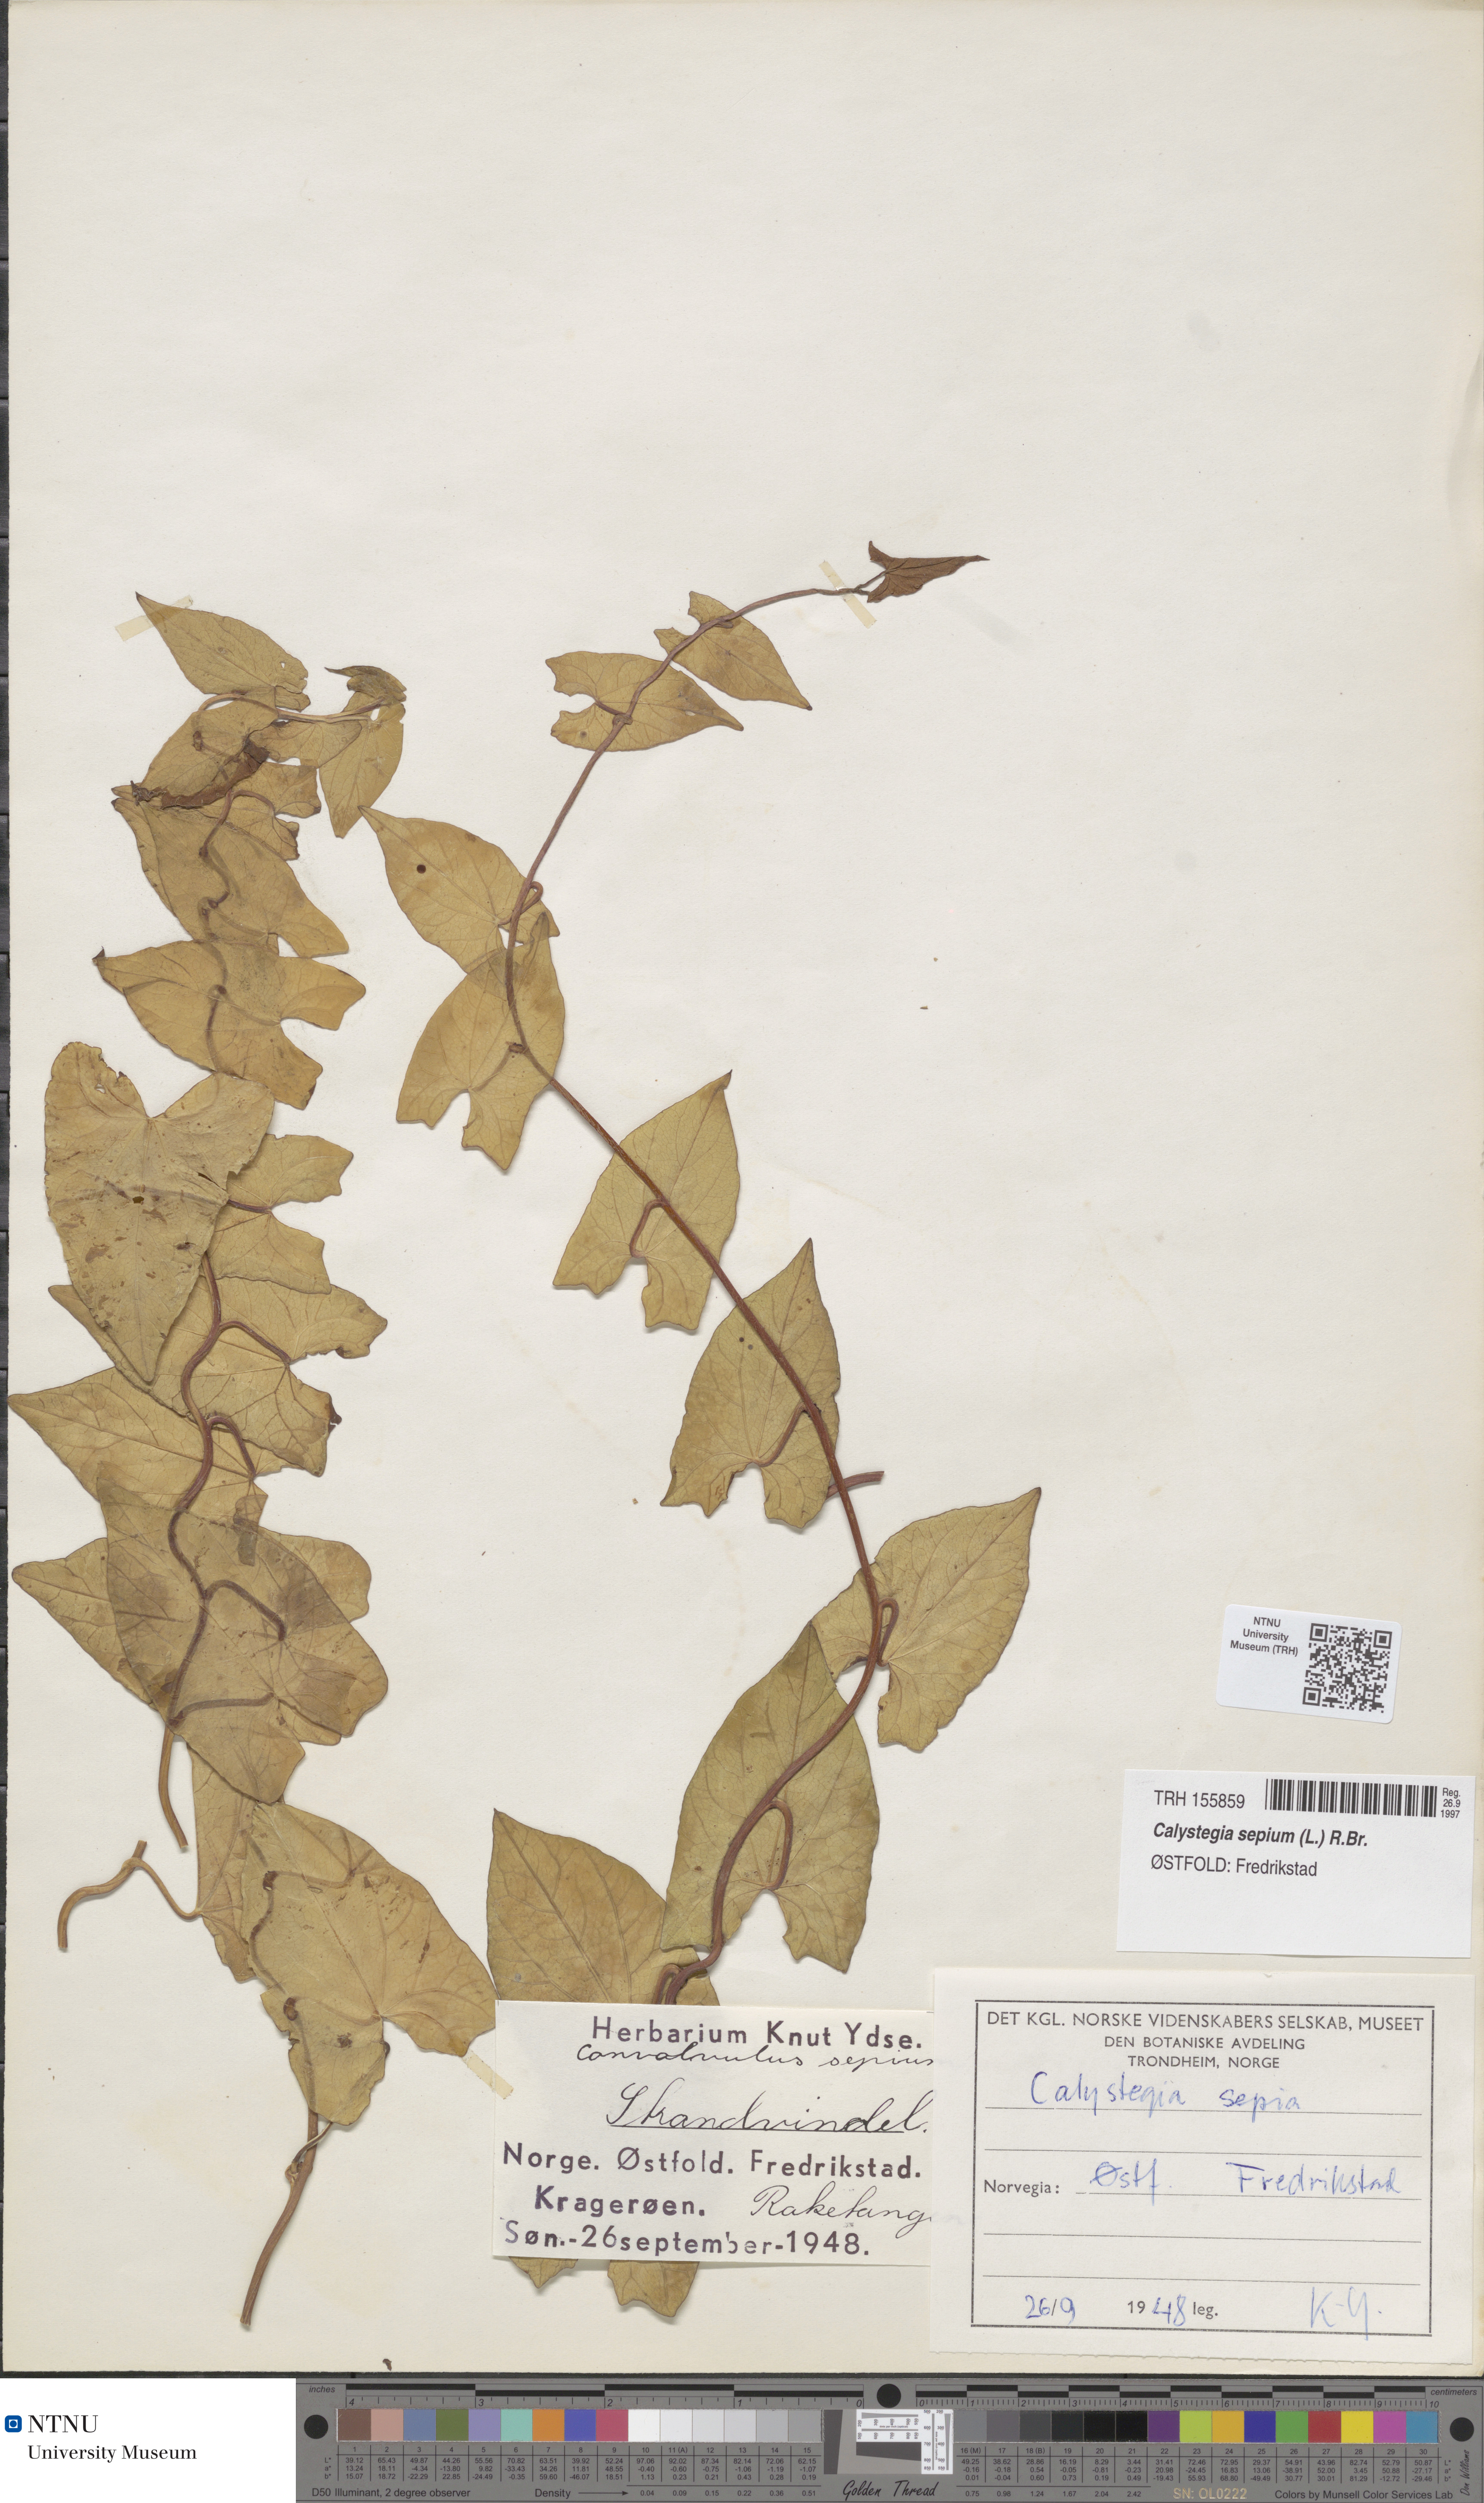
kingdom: Plantae
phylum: Tracheophyta
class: Magnoliopsida
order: Solanales
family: Convolvulaceae
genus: Calystegia
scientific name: Calystegia sepium
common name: Hedge bindweed
